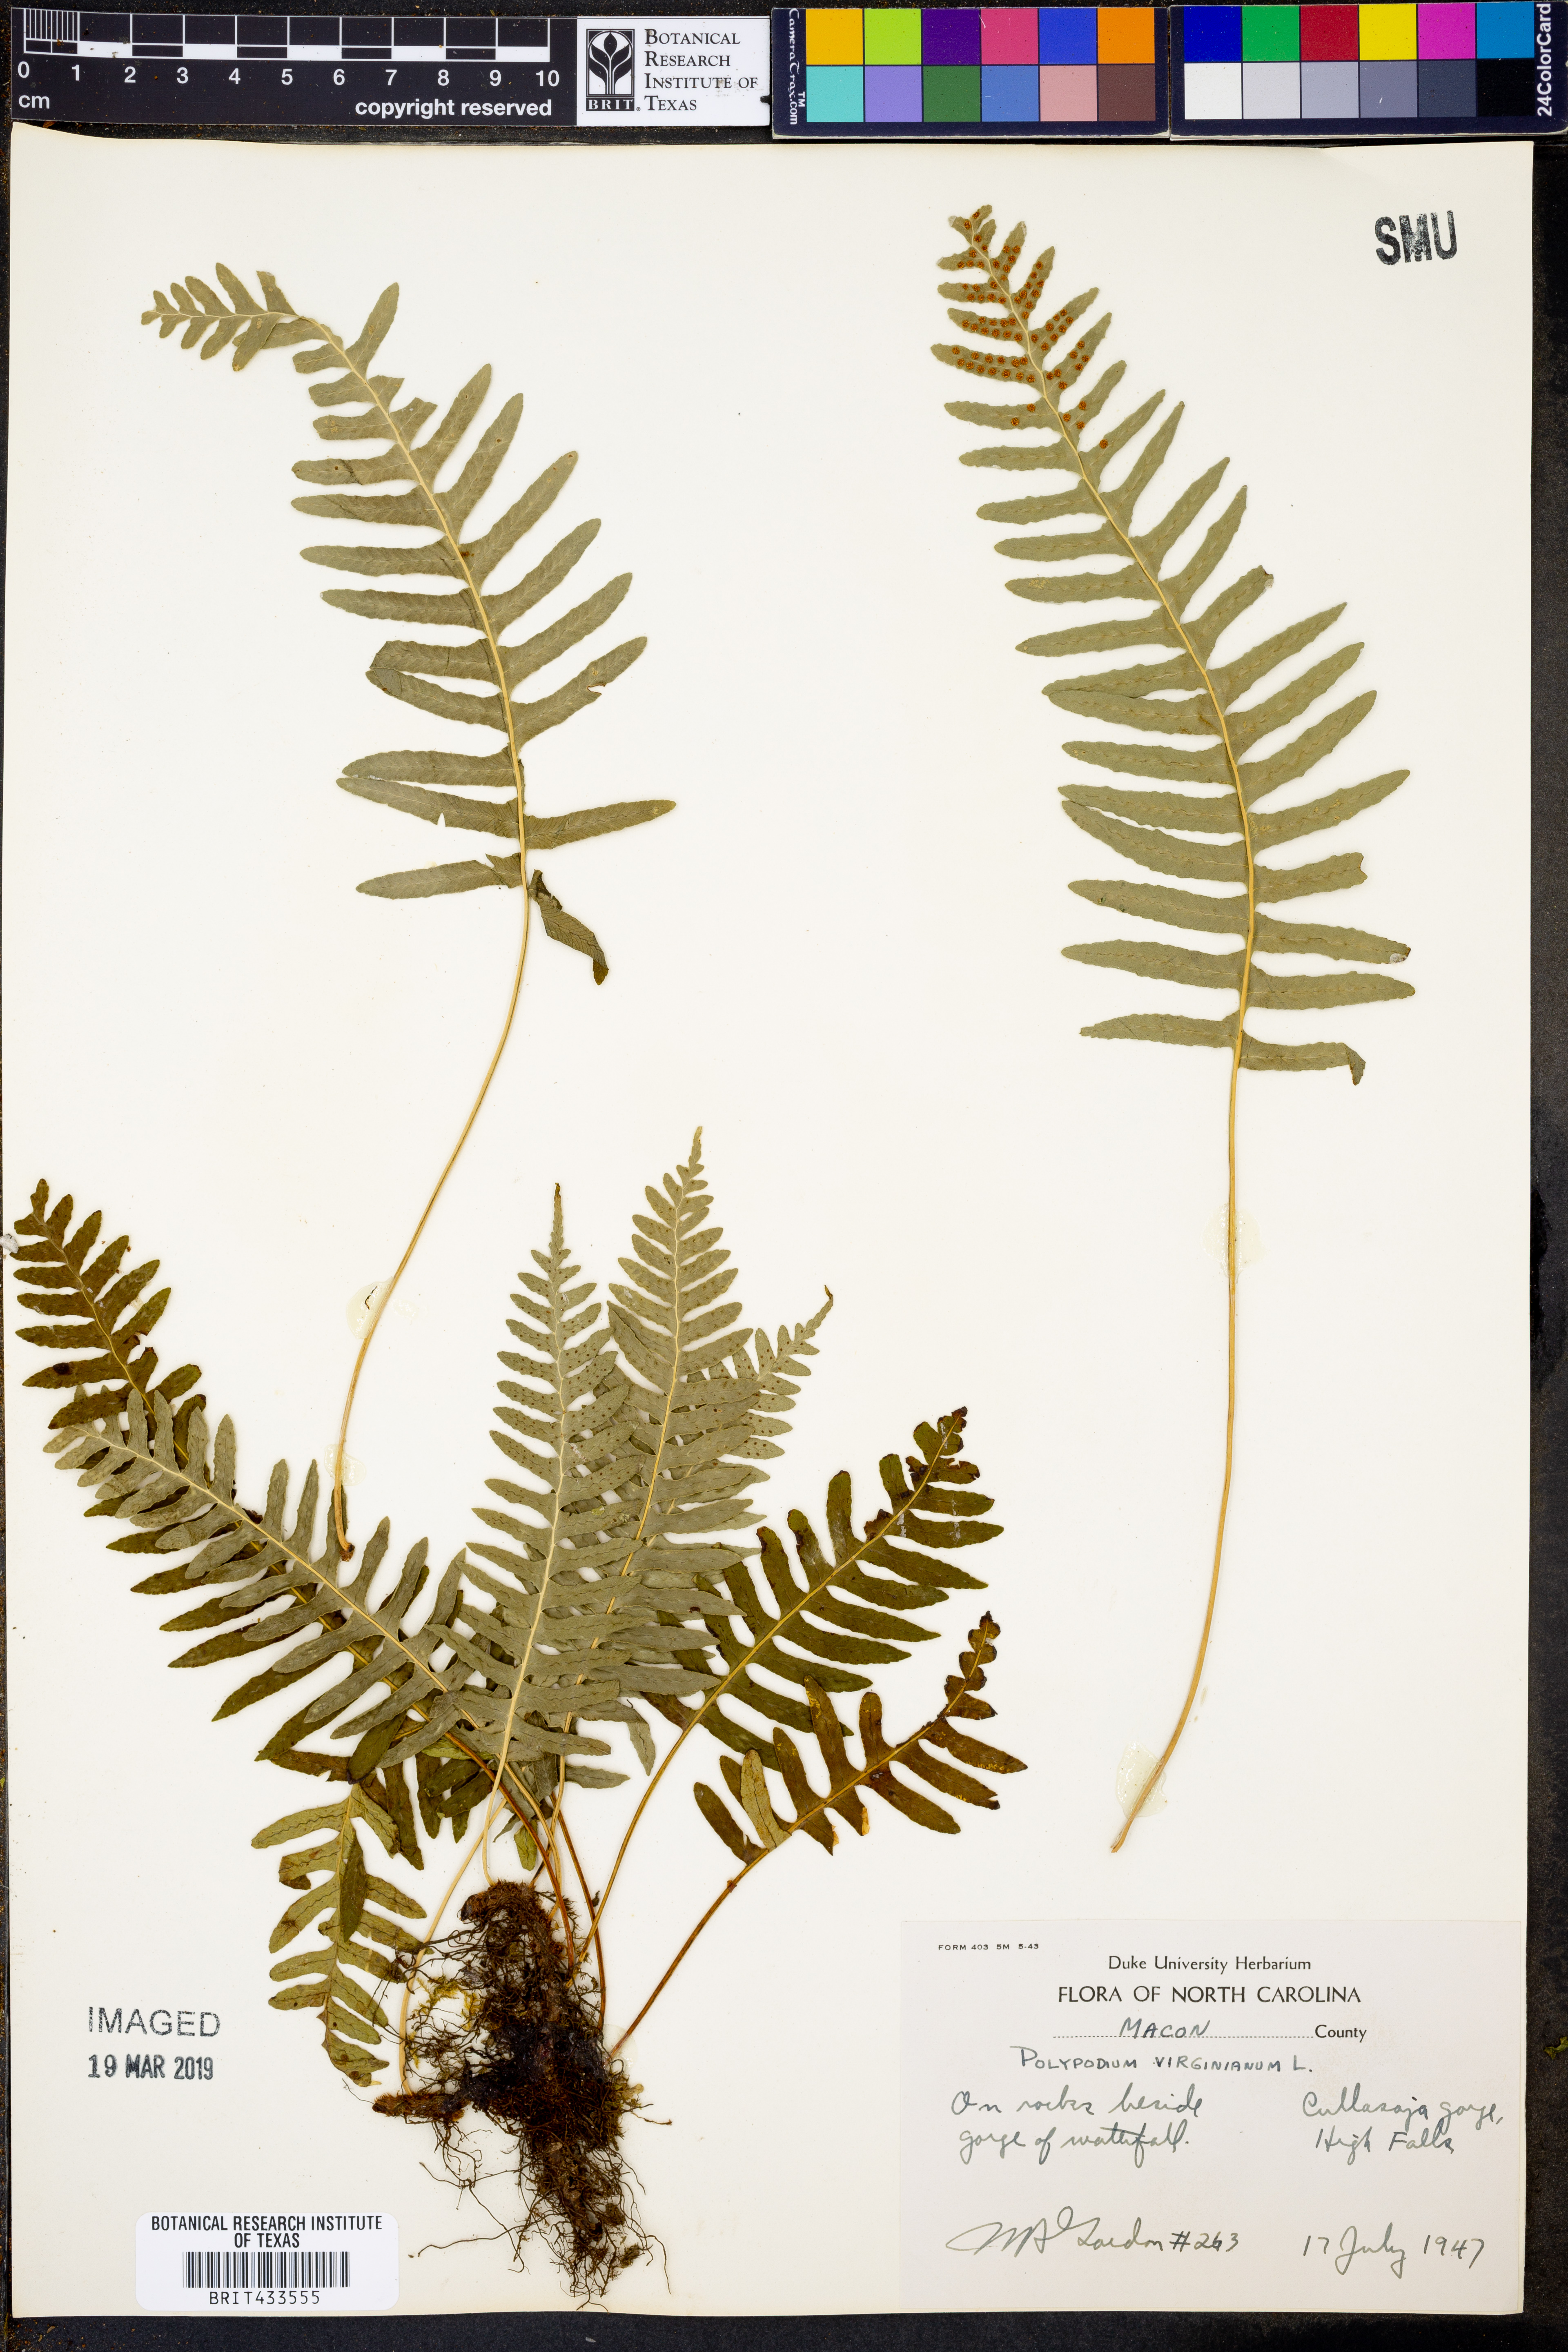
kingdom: Plantae
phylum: Tracheophyta
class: Polypodiopsida
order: Polypodiales
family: Polypodiaceae
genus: Polypodium
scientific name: Polypodium virginianum
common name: American wall fern
